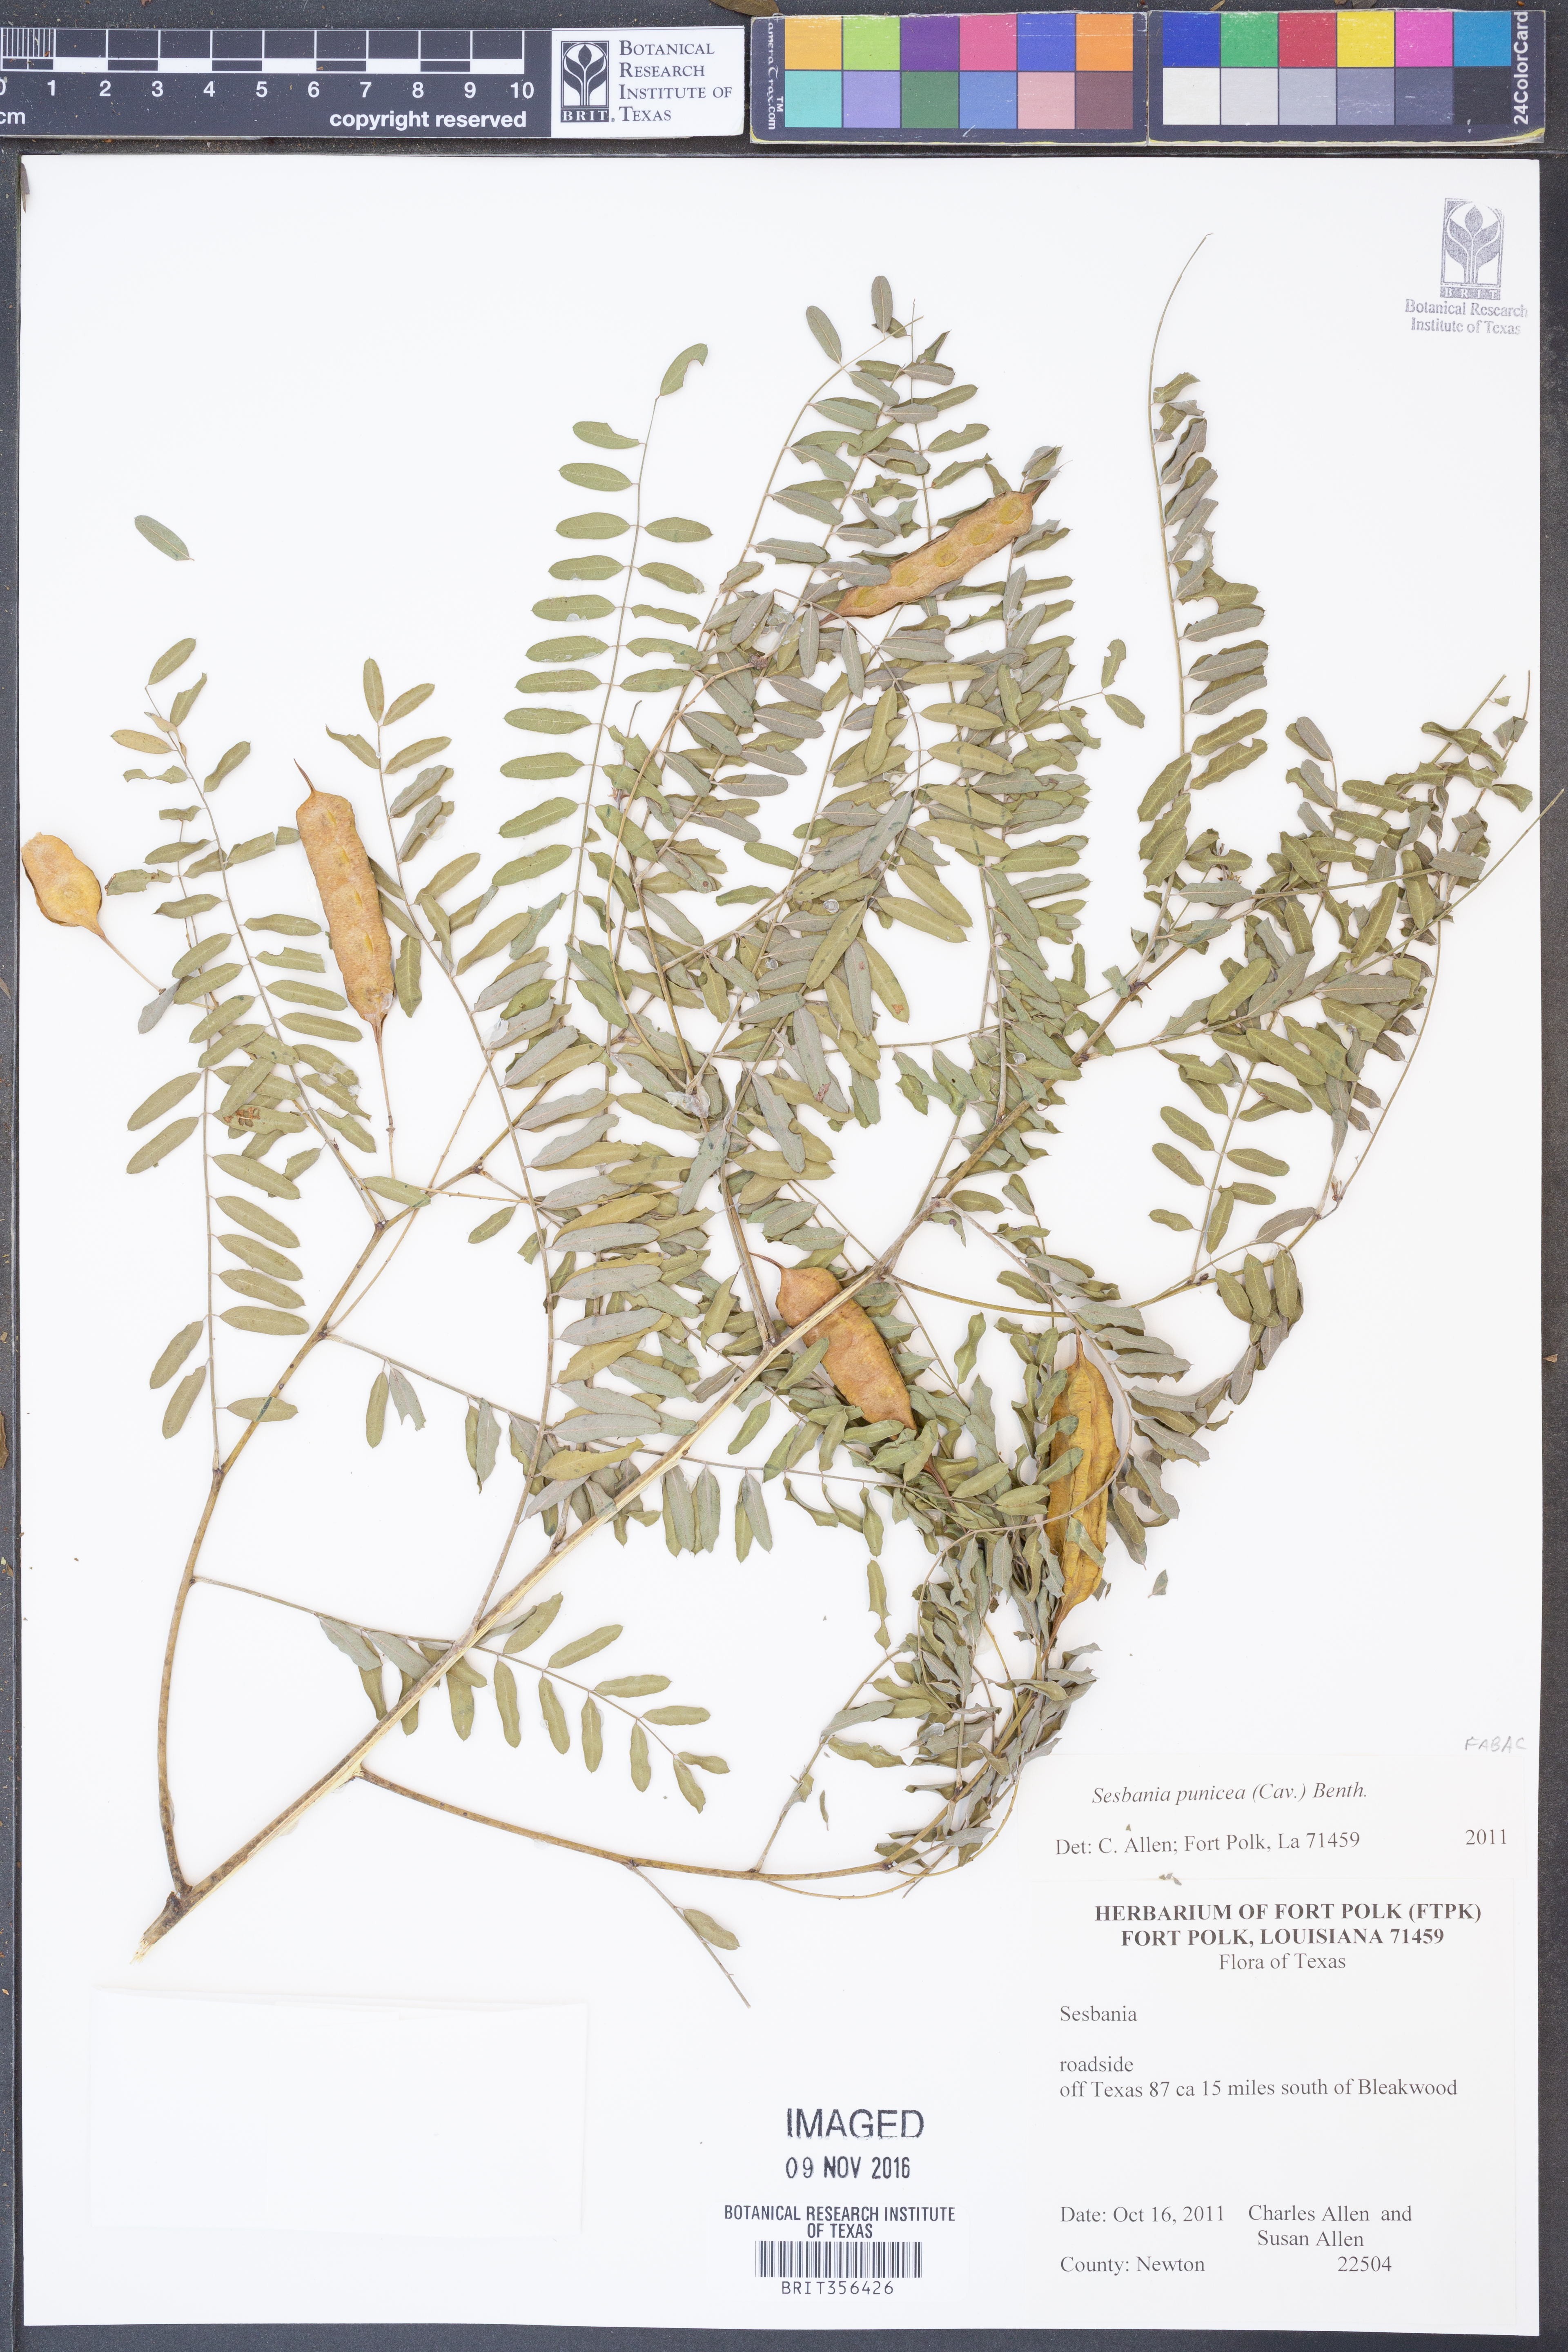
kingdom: Plantae
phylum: Tracheophyta
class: Magnoliopsida
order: Fabales
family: Fabaceae
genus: Sesbania
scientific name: Sesbania punicea
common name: Rattlebox
